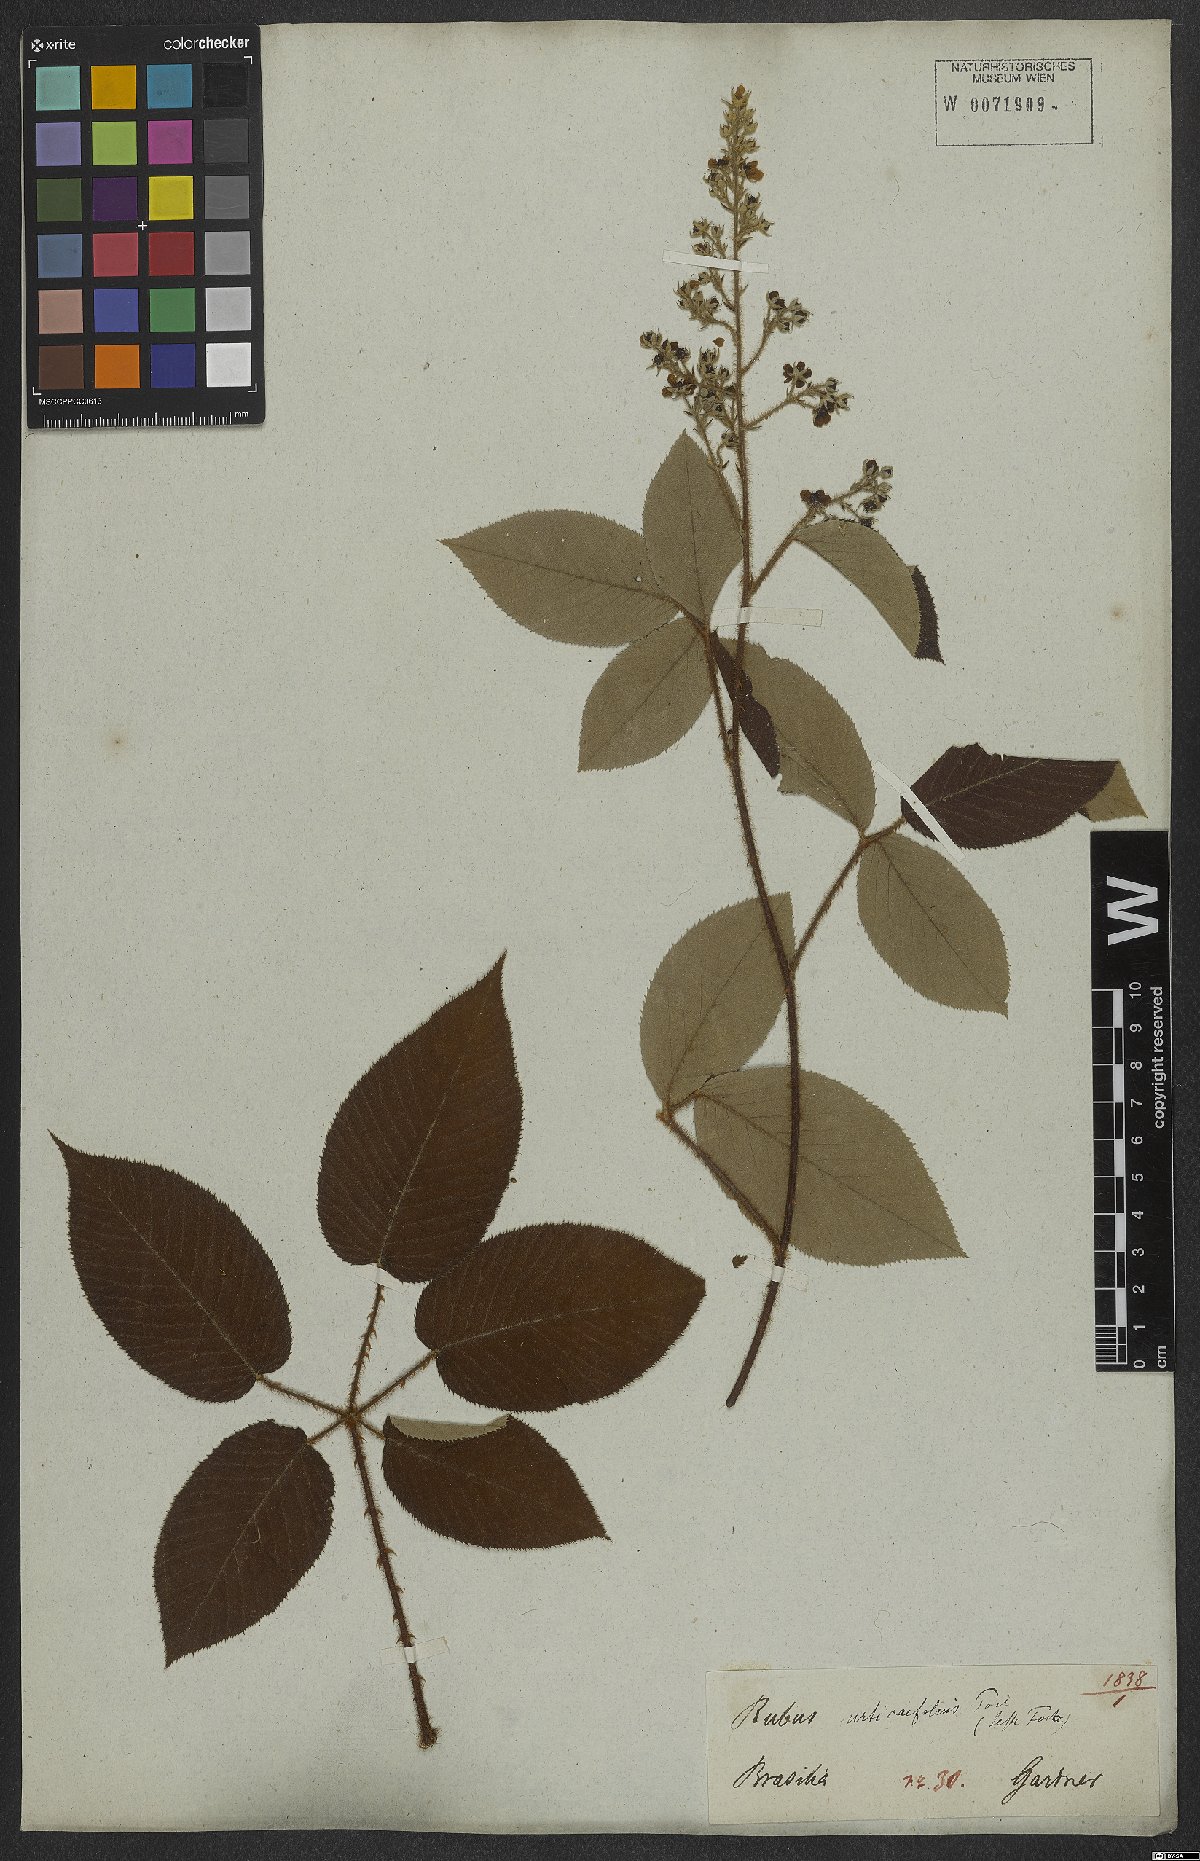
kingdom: Plantae
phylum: Tracheophyta
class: Magnoliopsida
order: Rosales
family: Rosaceae
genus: Rubus
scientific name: Rubus urticifolius
